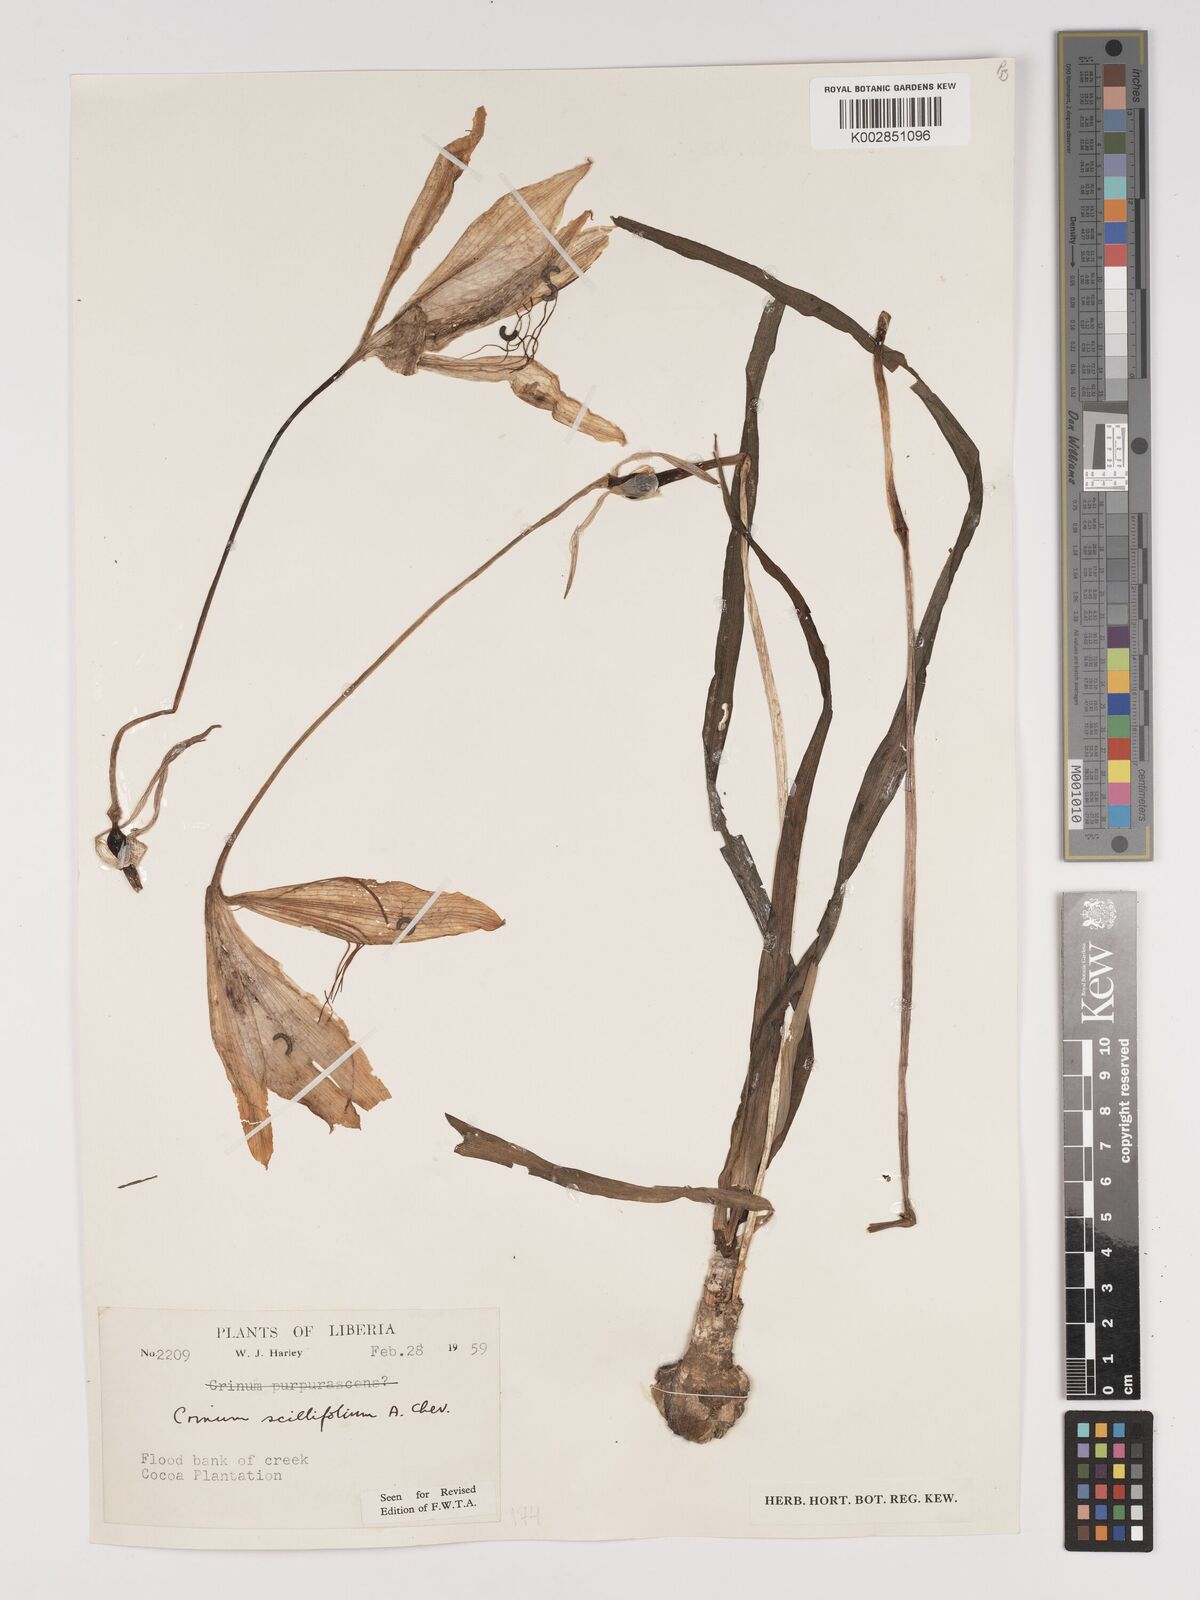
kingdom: Plantae
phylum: Tracheophyta
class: Liliopsida
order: Asparagales
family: Amaryllidaceae
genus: Crinum
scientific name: Crinum scillifolium
